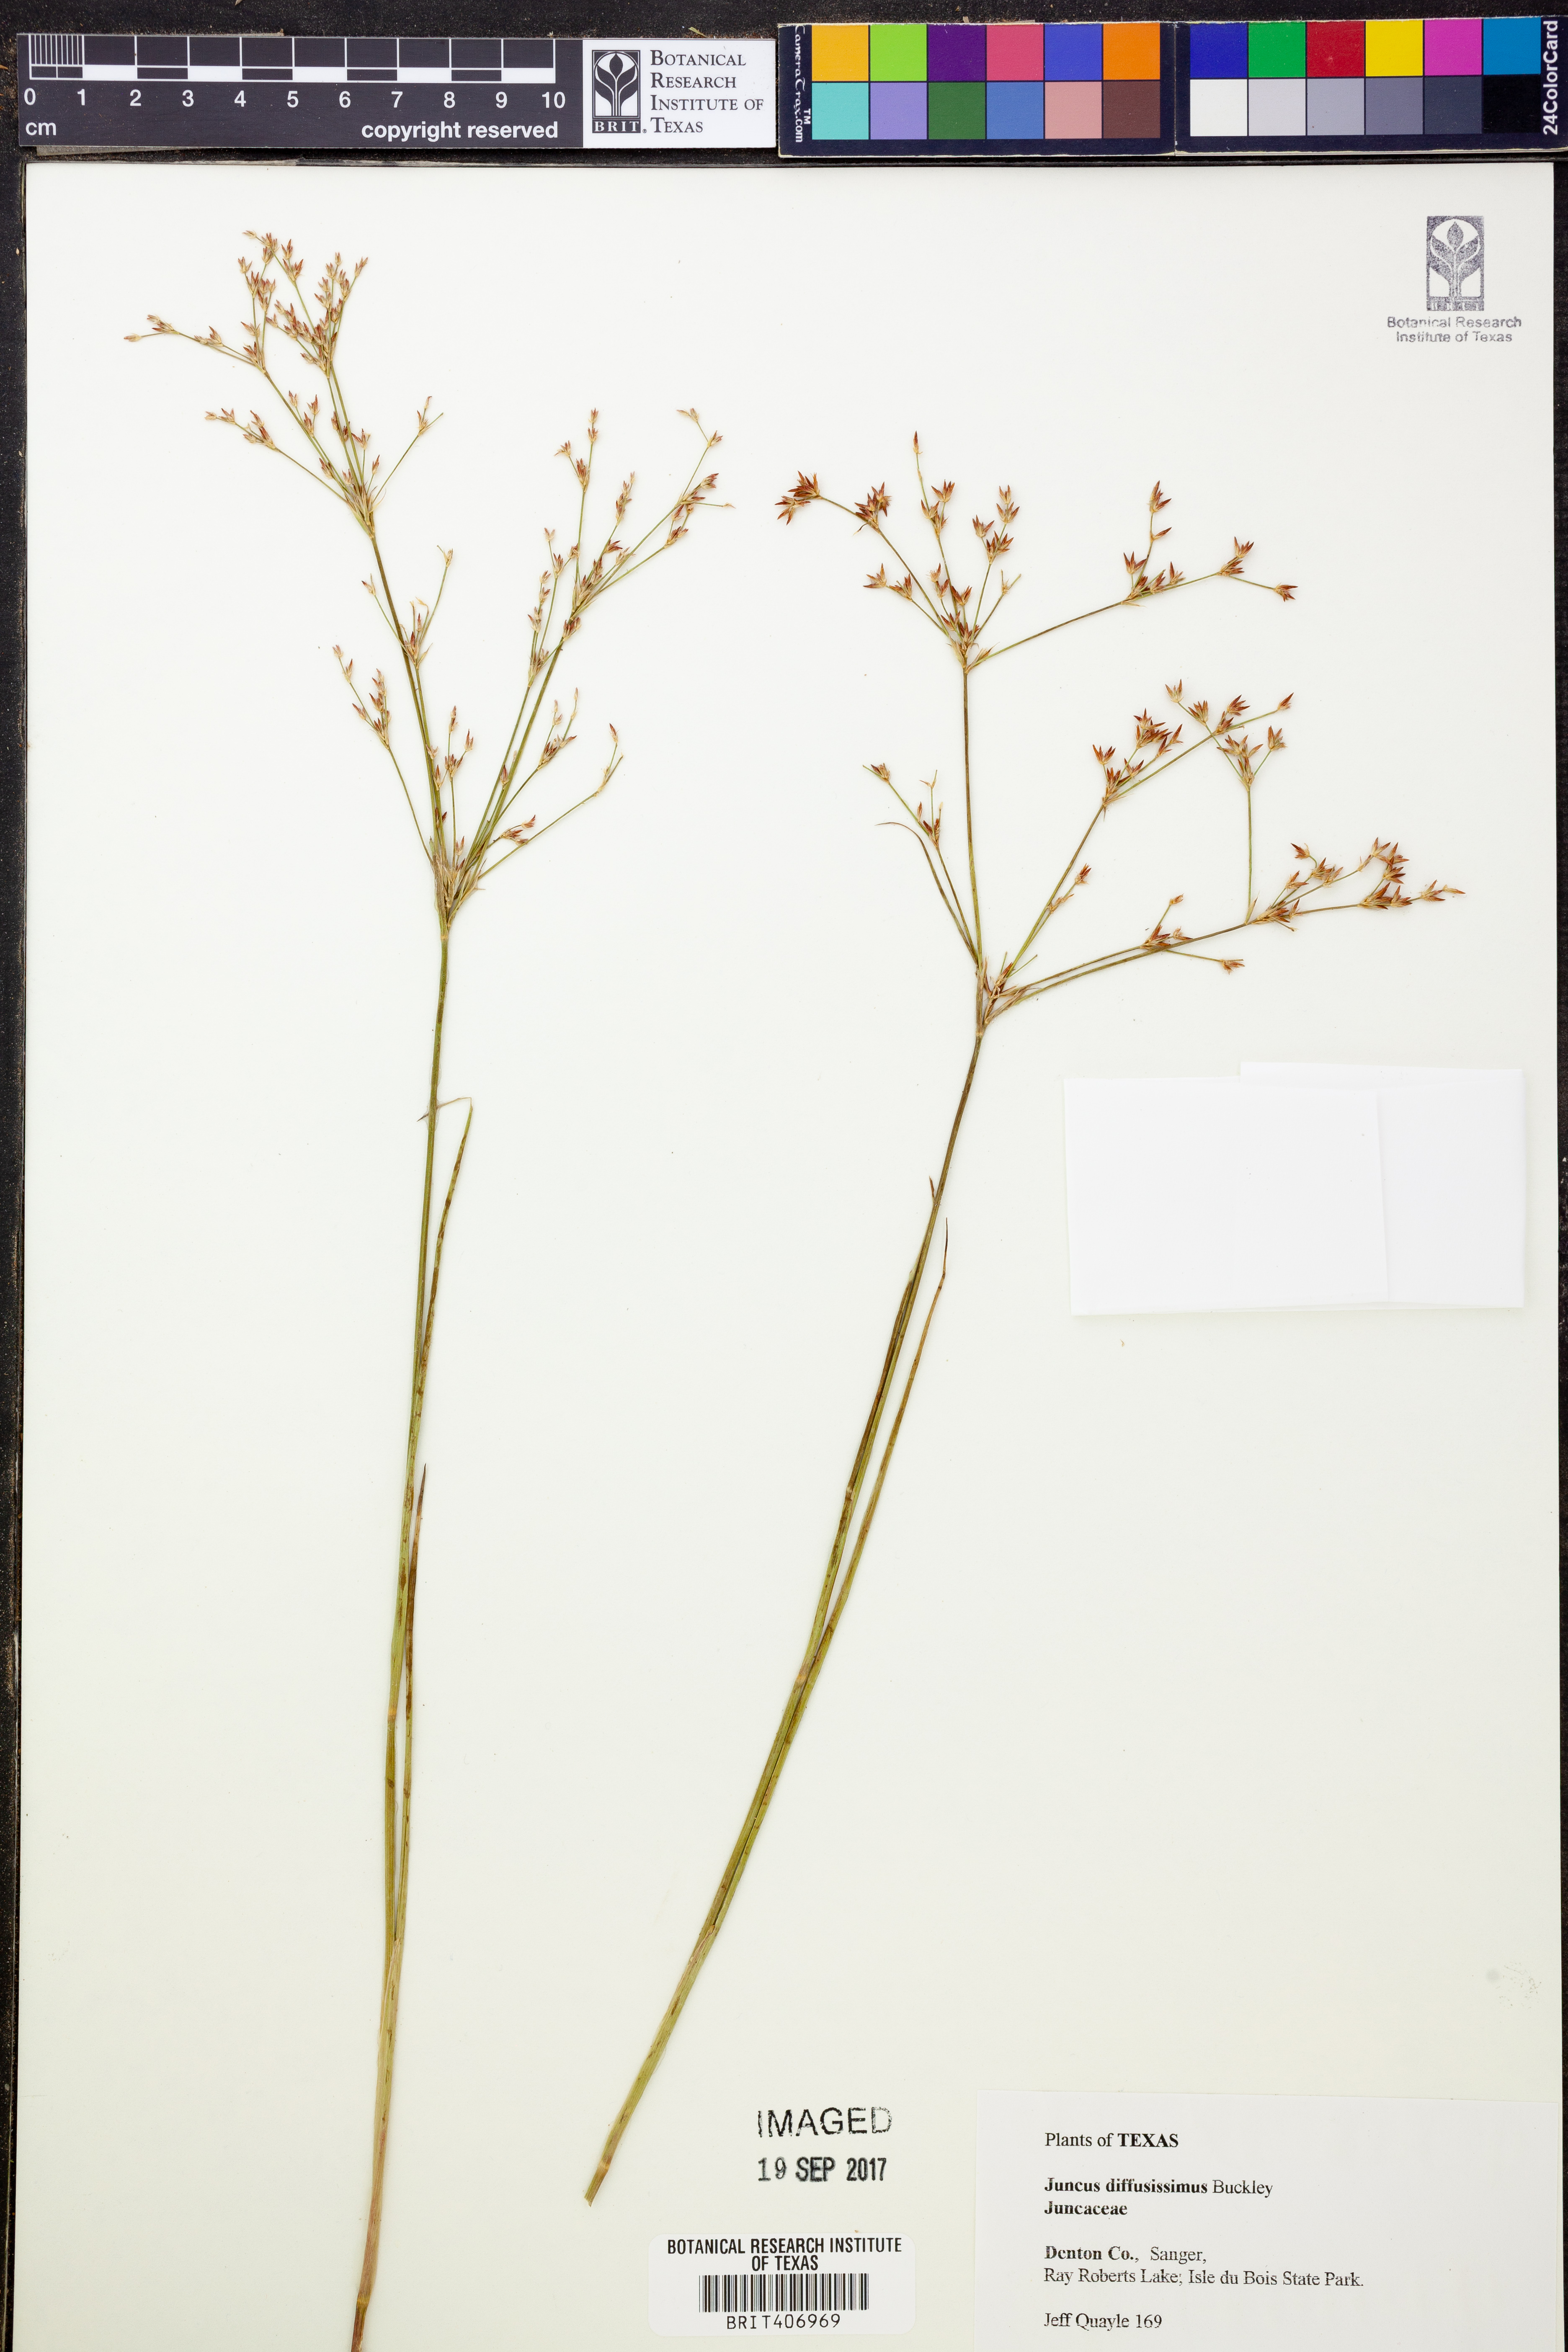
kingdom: Plantae
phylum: Tracheophyta
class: Liliopsida
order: Poales
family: Juncaceae
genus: Juncus
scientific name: Juncus diffusissimus
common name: Slimpod rush
